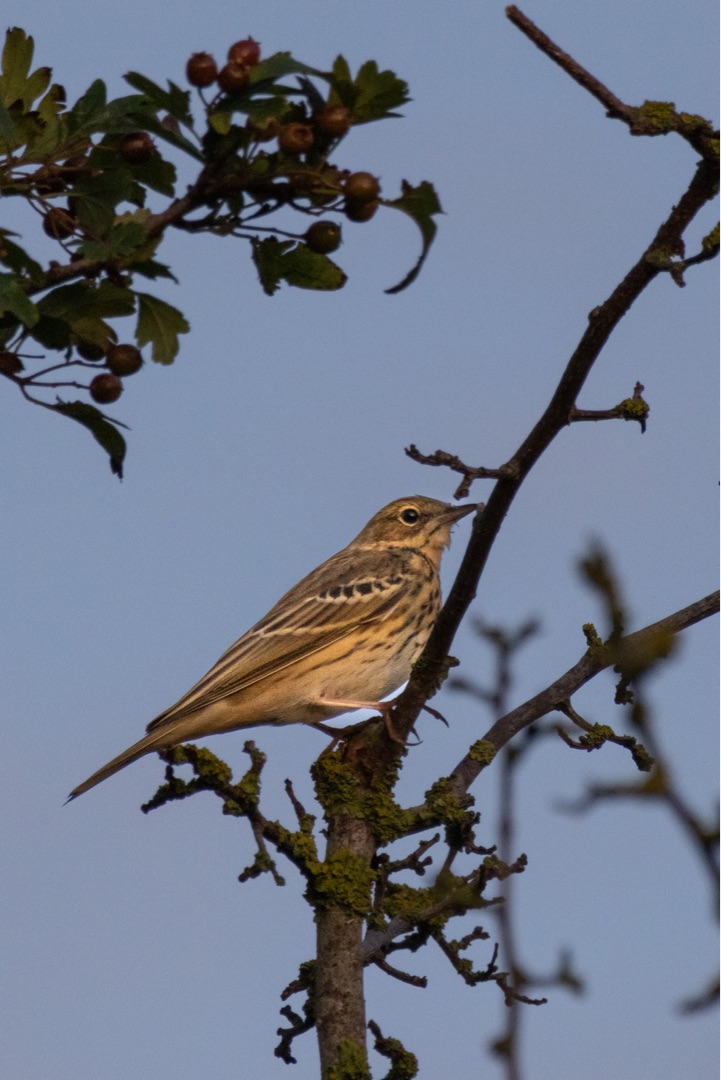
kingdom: Animalia
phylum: Chordata
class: Aves
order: Passeriformes
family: Motacillidae
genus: Anthus
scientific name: Anthus trivialis
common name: Skovpiber
